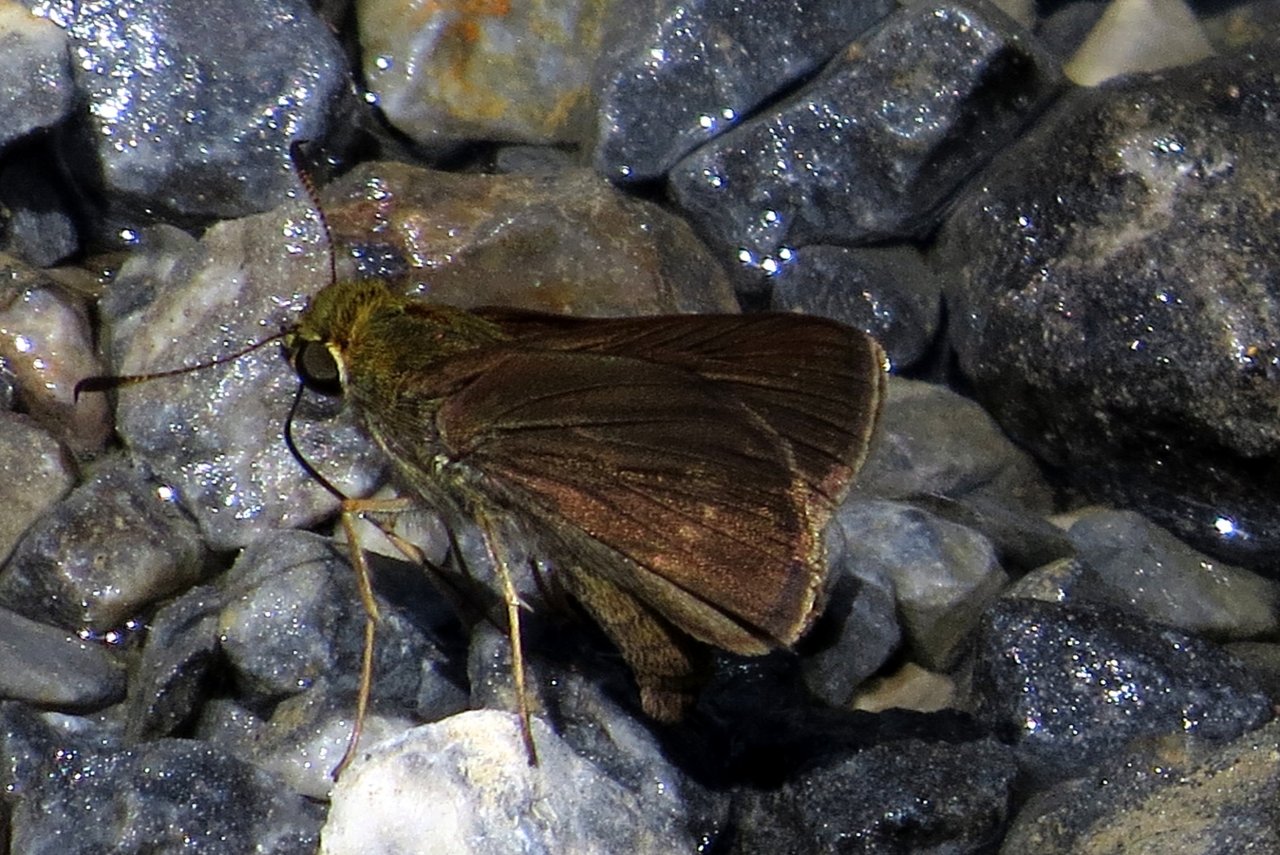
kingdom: Animalia
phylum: Arthropoda
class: Insecta
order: Lepidoptera
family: Hesperiidae
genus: Euphyes
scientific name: Euphyes vestris
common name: Dun Skipper
